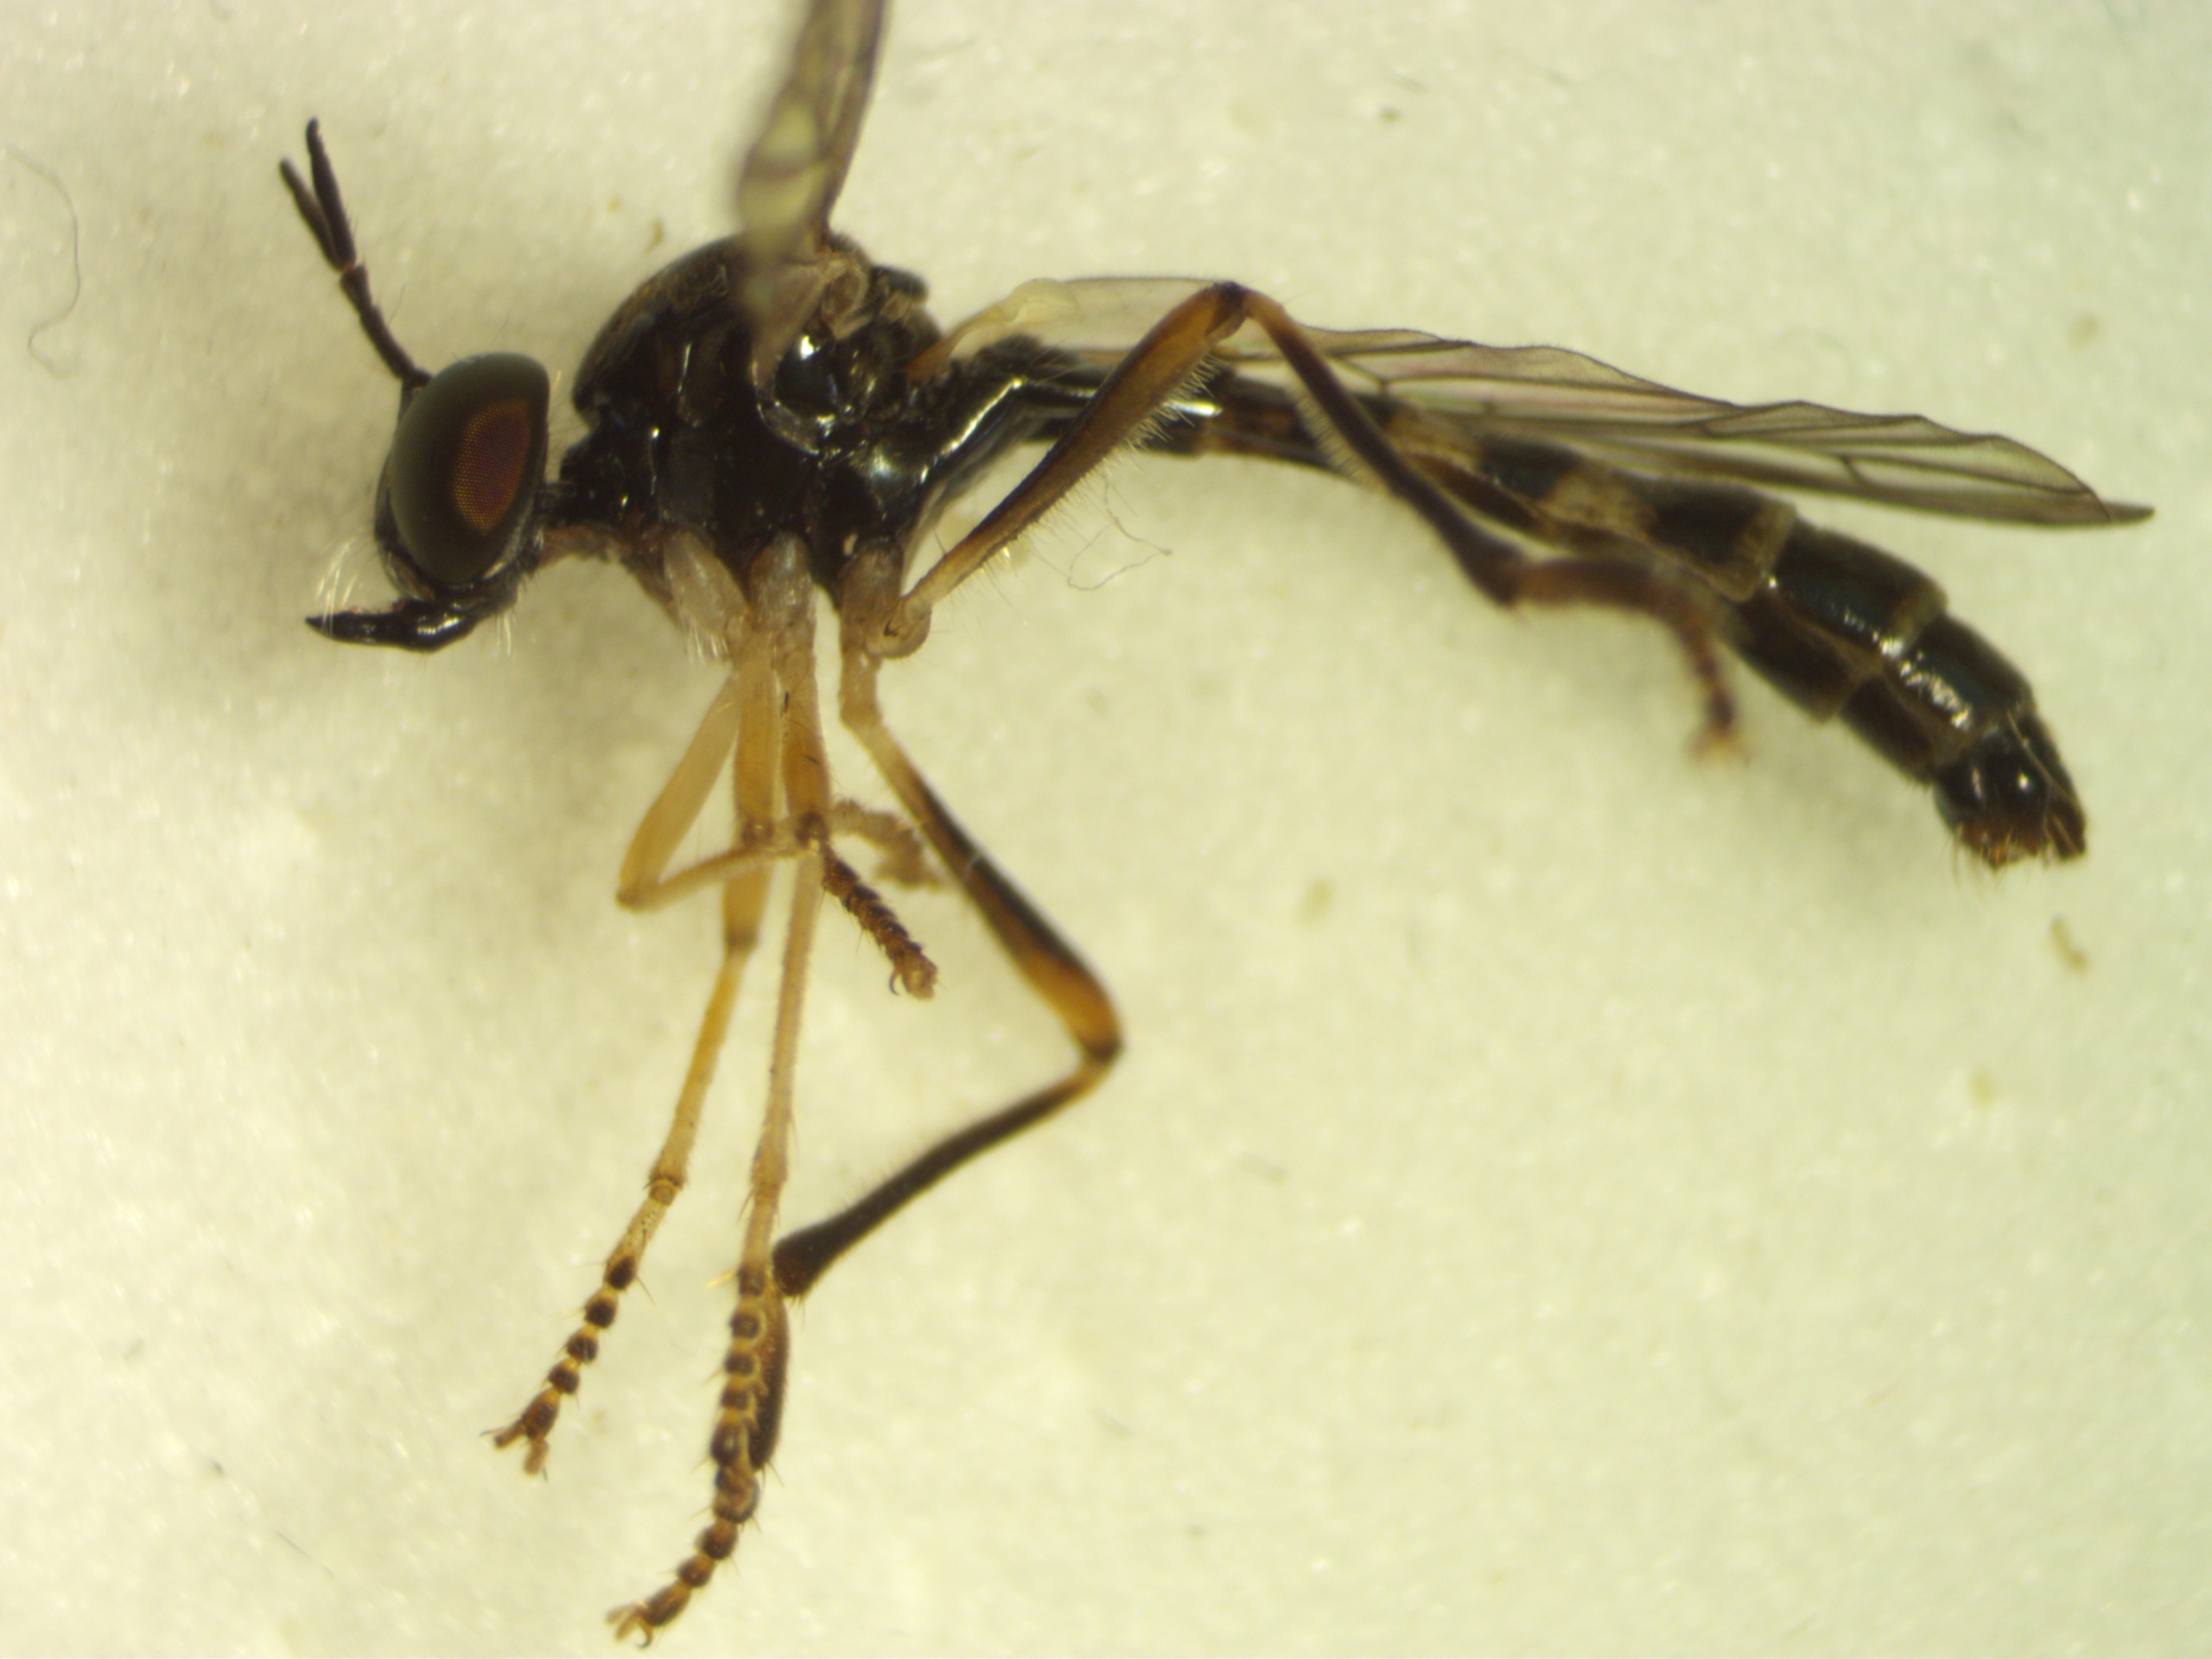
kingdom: Animalia
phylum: Arthropoda
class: Insecta
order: Diptera
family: Asilidae
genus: Dioctria
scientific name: Dioctria linearis
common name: Blegbenet rovflue
